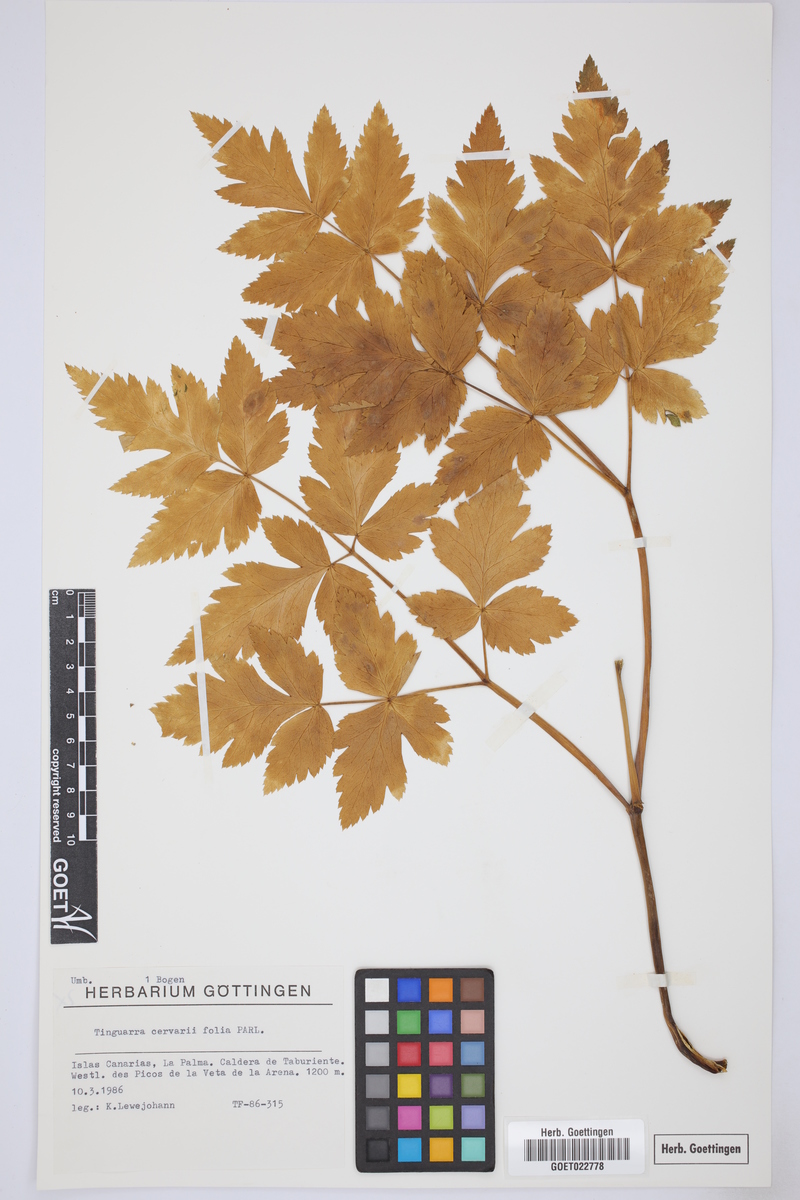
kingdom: Plantae
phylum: Tracheophyta
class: Magnoliopsida
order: Apiales
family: Apiaceae
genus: Athamanta
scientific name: Athamanta cervariifolia
